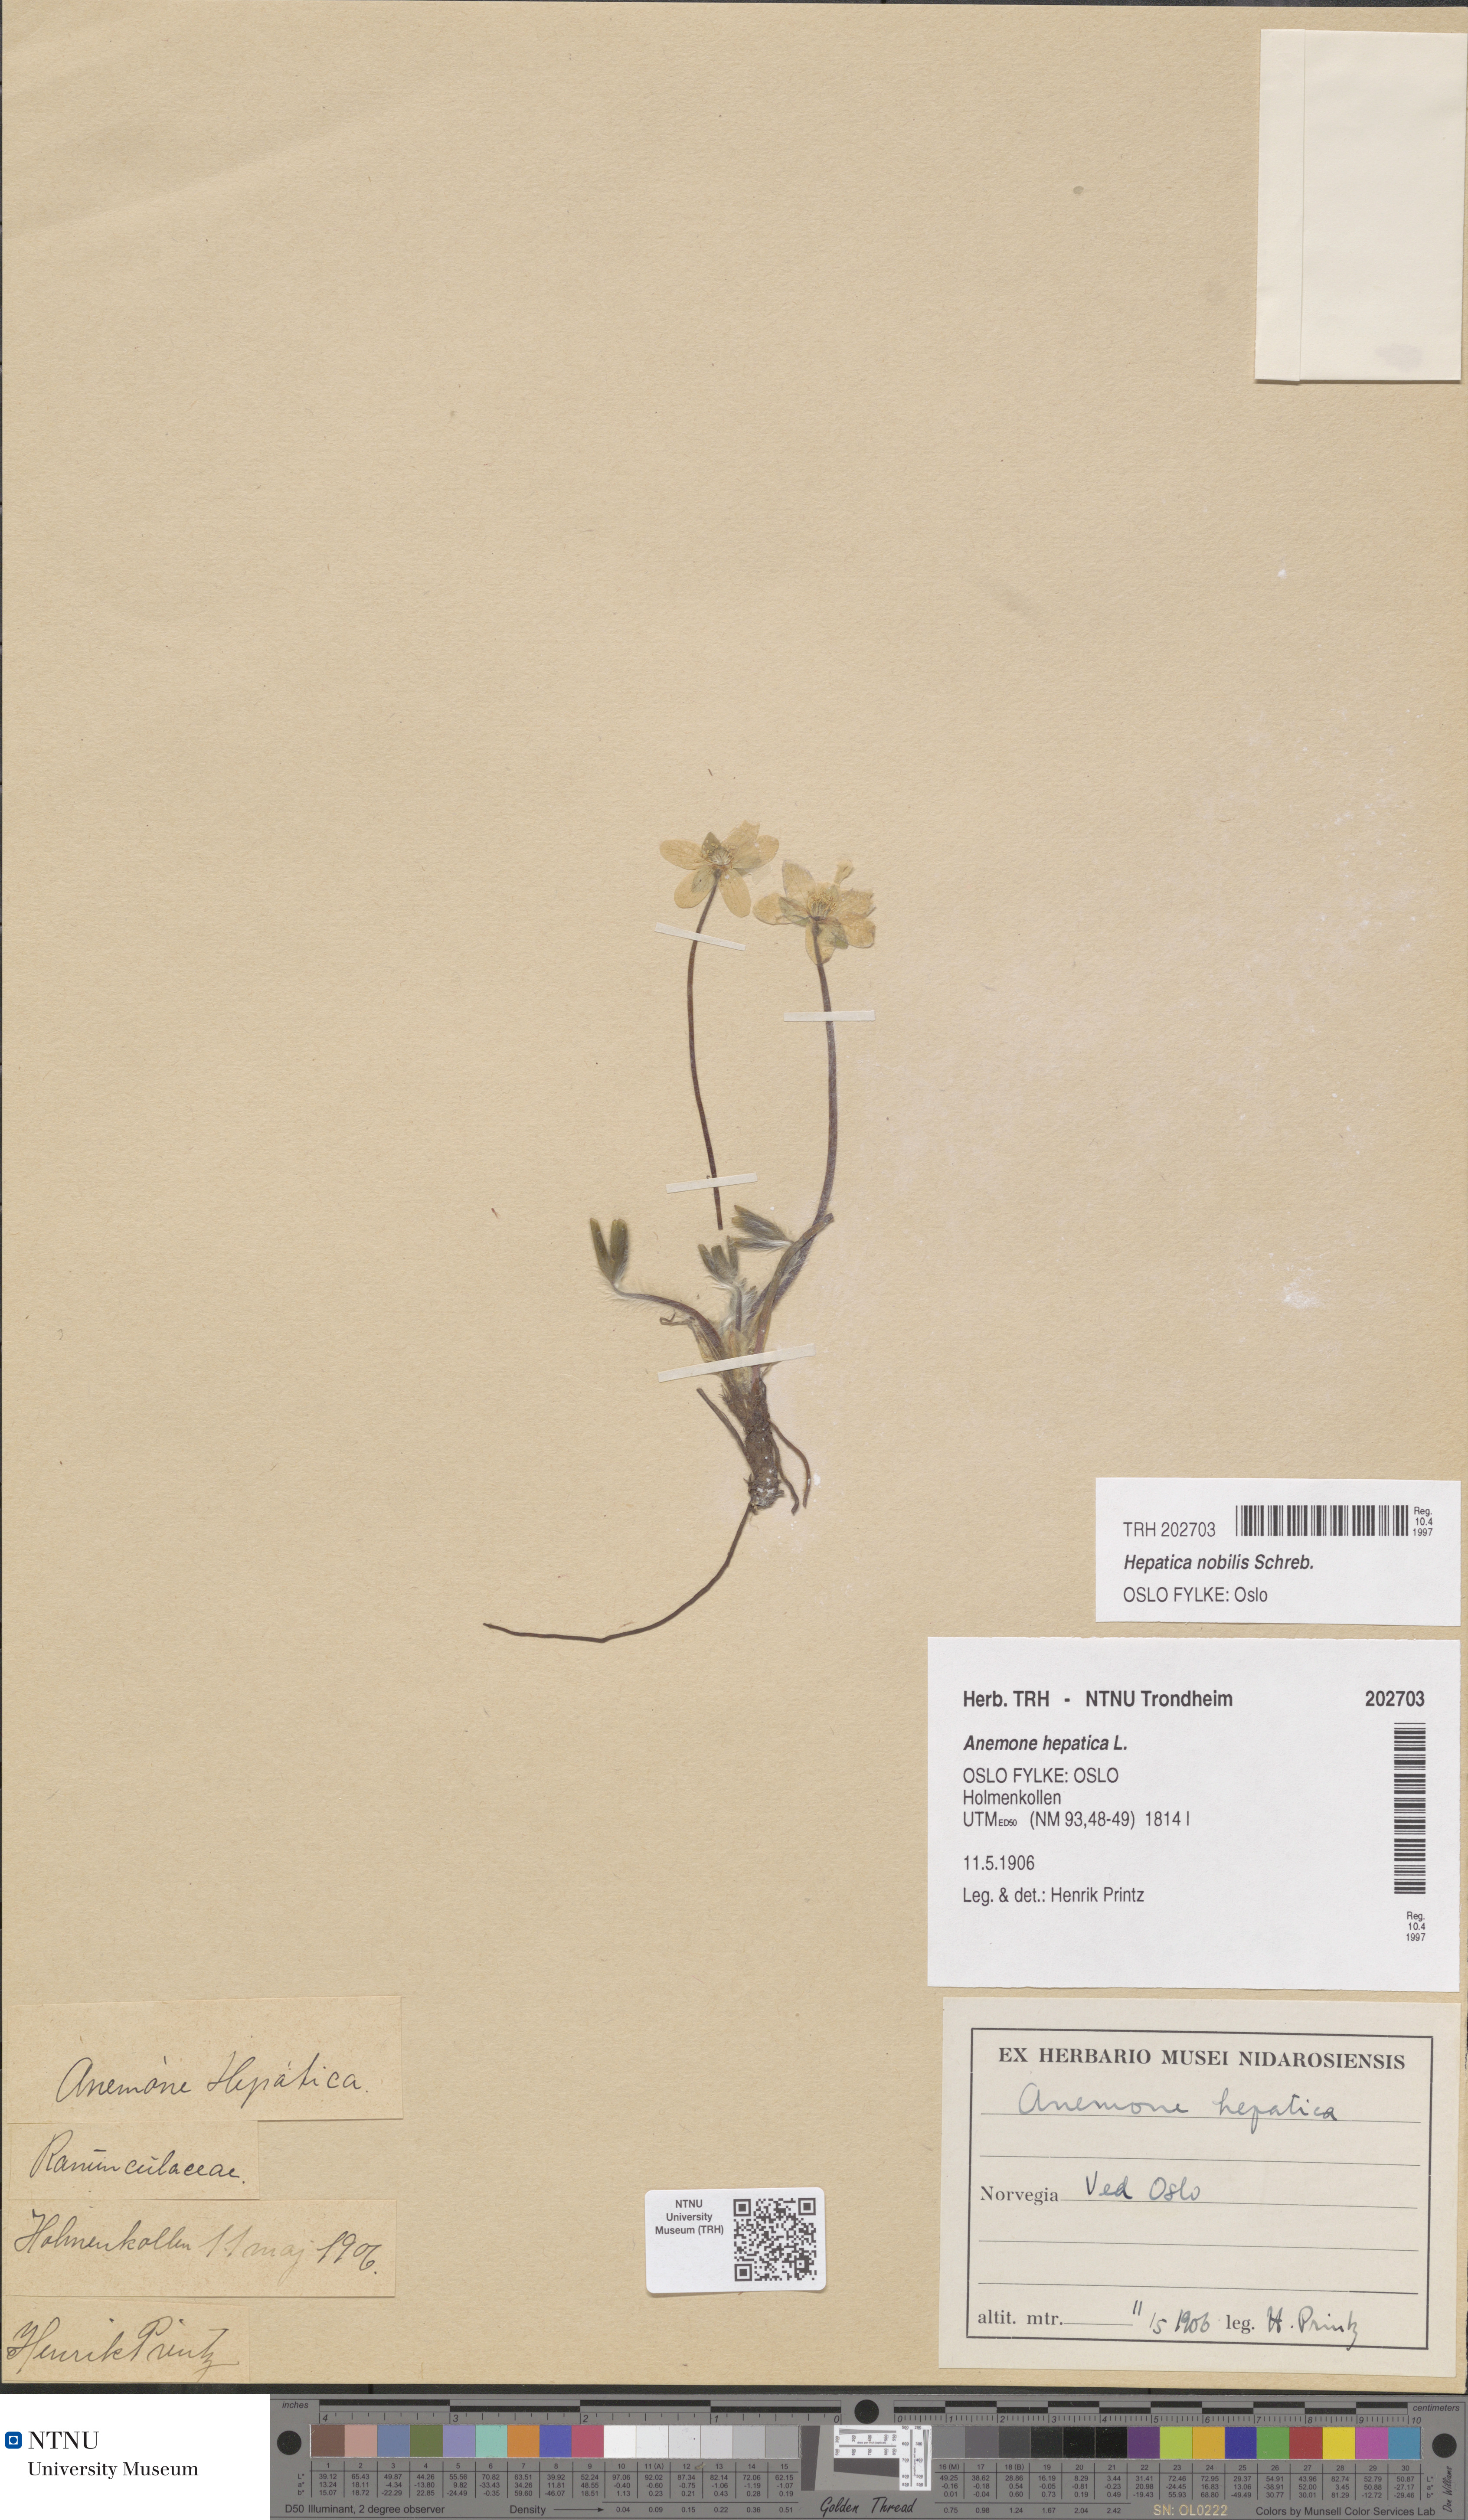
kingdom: Plantae
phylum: Tracheophyta
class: Magnoliopsida
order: Ranunculales
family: Ranunculaceae
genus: Hepatica
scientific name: Hepatica nobilis
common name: Liverleaf
